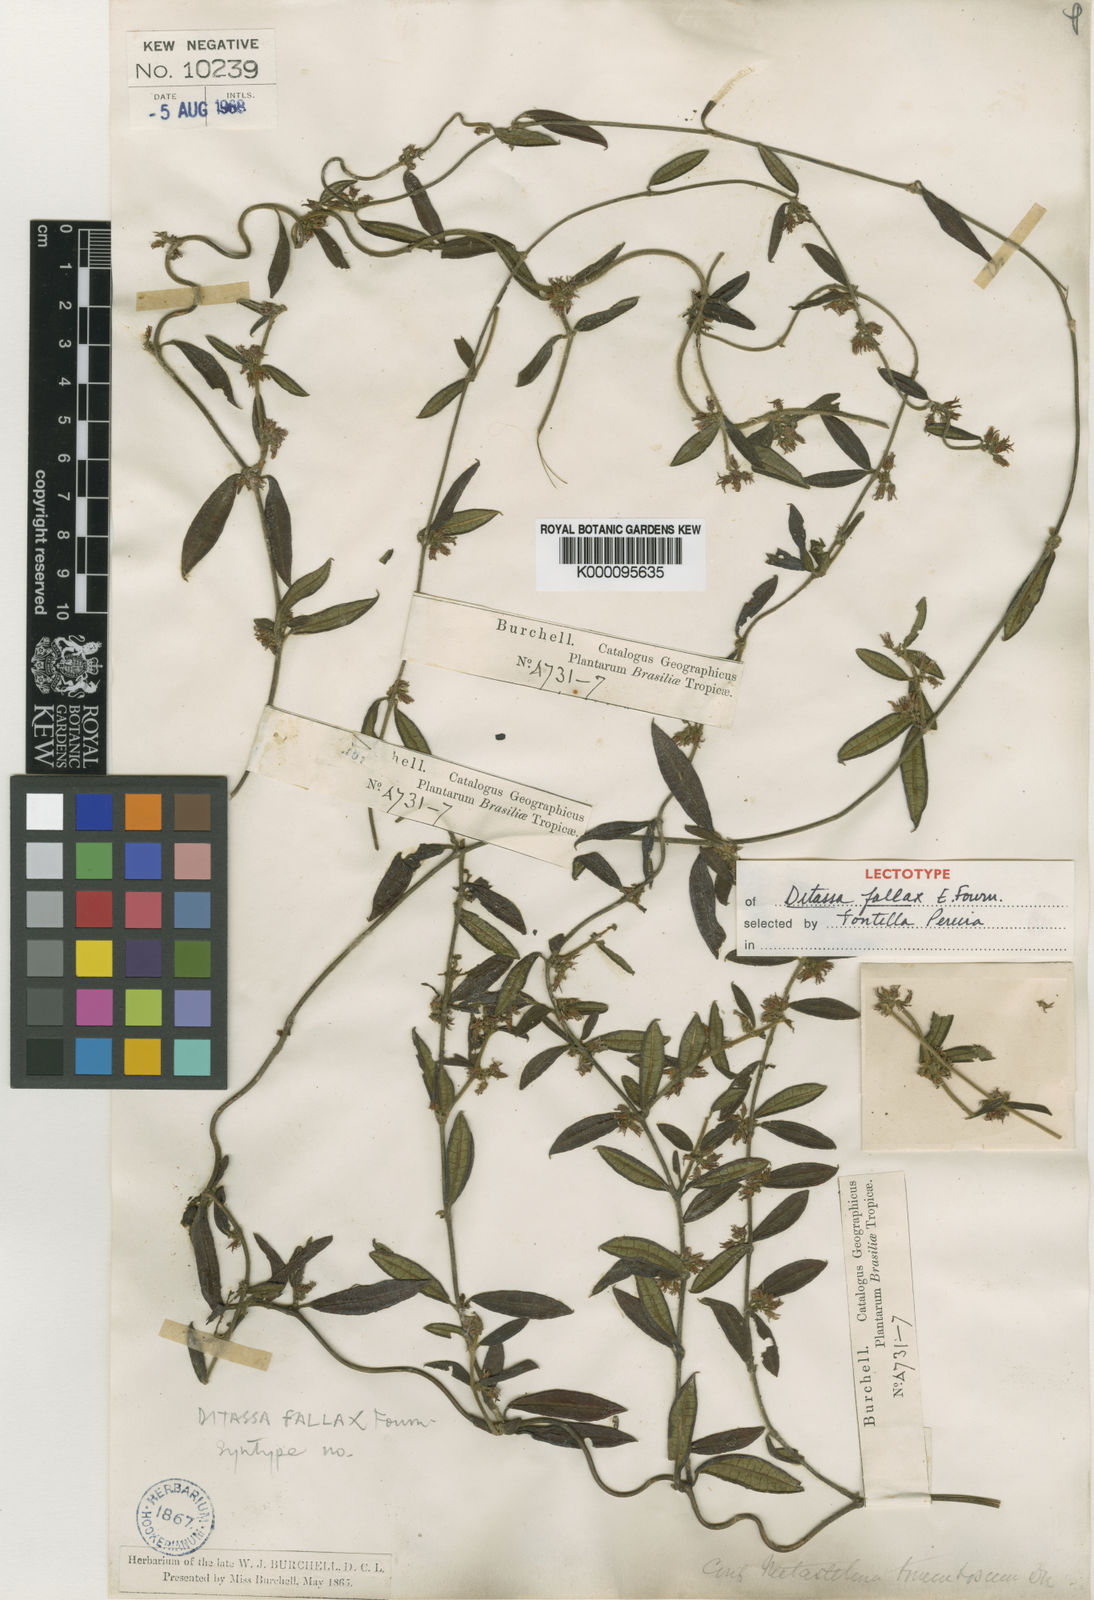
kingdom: Plantae
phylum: Tracheophyta
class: Magnoliopsida
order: Gentianales
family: Apocynaceae
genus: Ditassa
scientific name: Ditassa tomentosa
